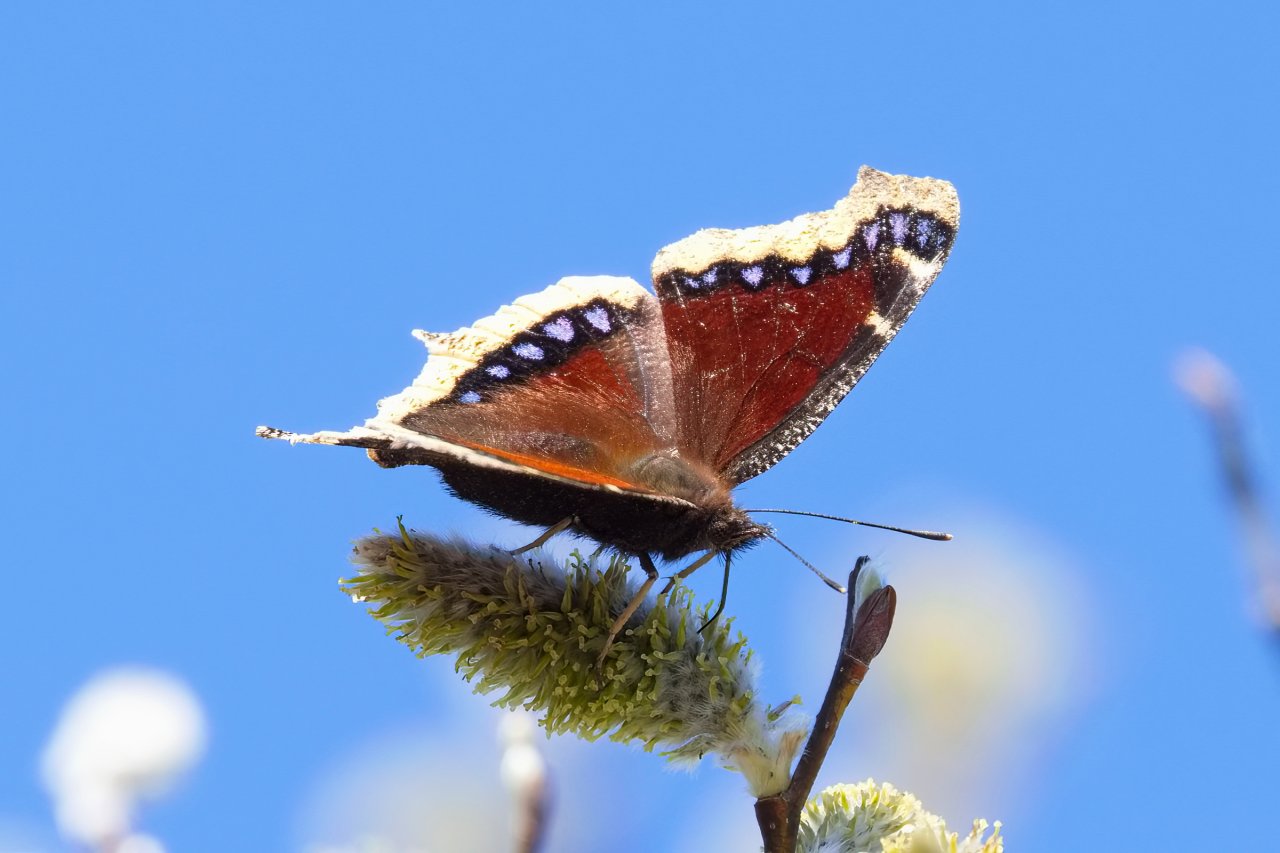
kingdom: Animalia
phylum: Arthropoda
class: Insecta
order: Lepidoptera
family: Nymphalidae
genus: Nymphalis
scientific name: Nymphalis antiopa
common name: Mourning Cloak
